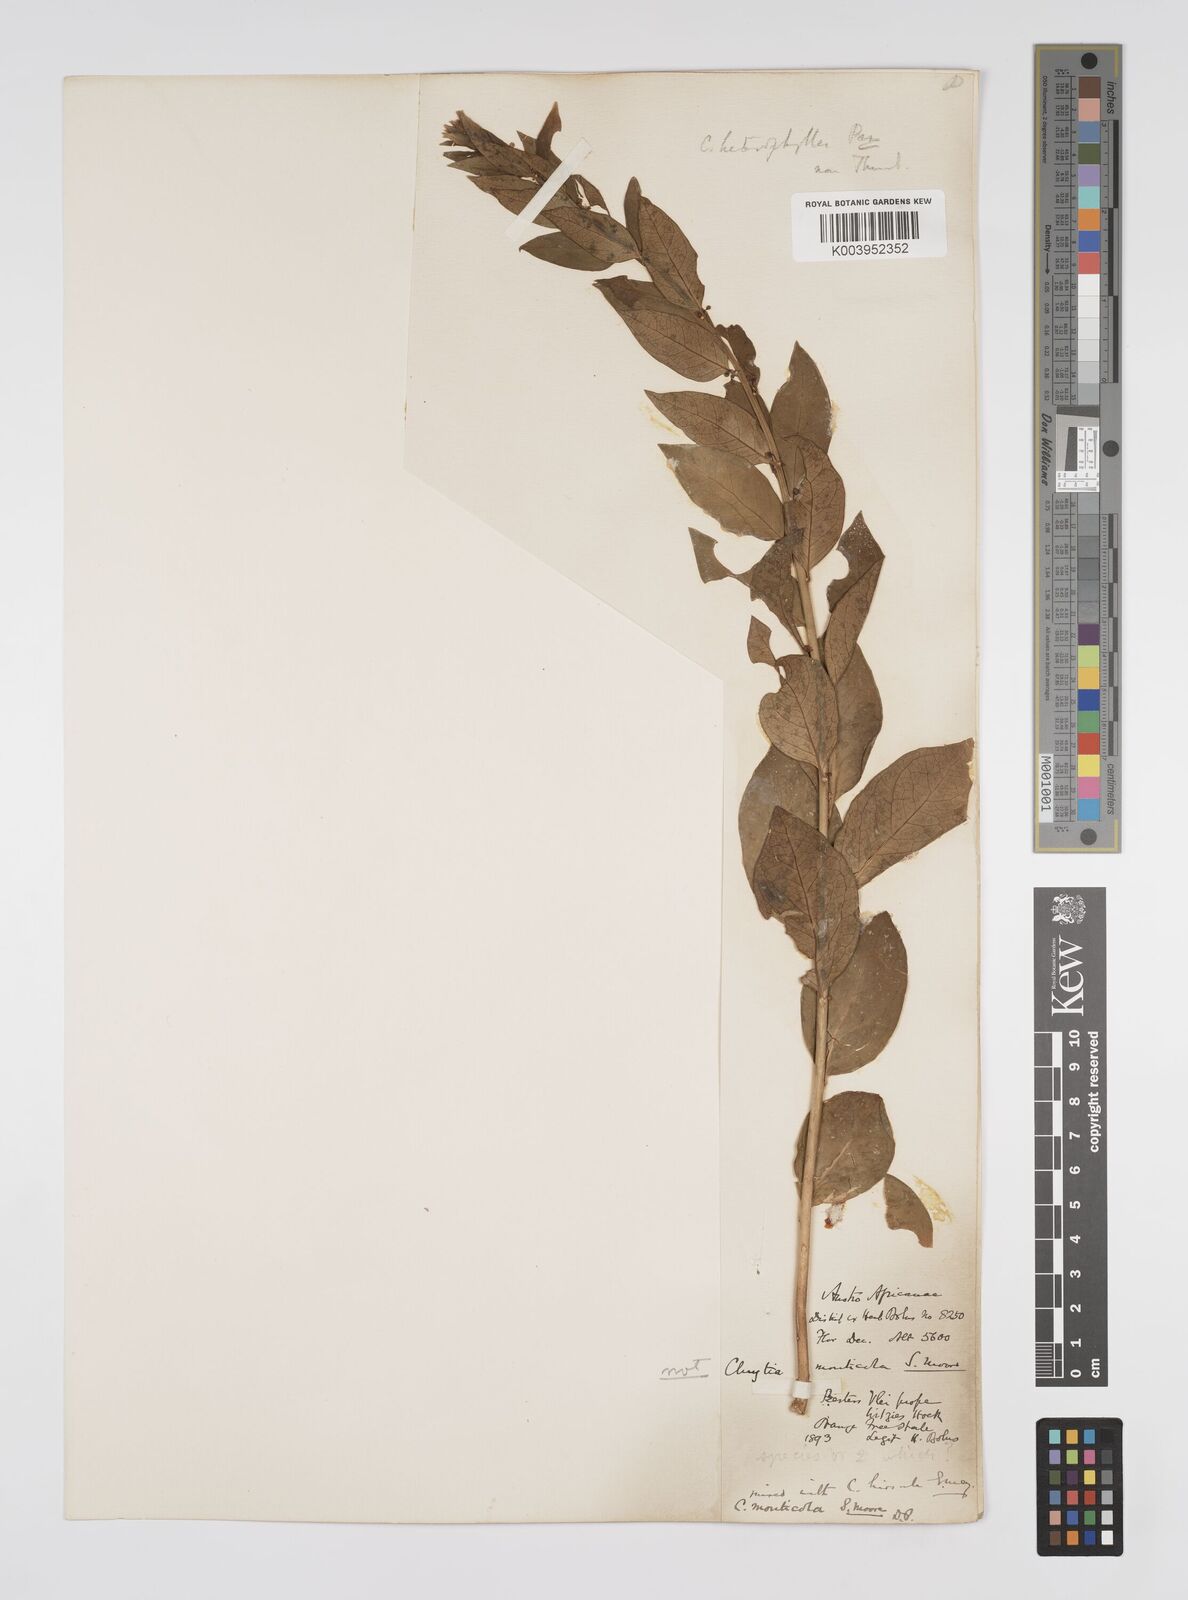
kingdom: Plantae
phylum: Tracheophyta
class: Magnoliopsida
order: Malpighiales
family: Peraceae
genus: Clutia
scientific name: Clutia monticola
